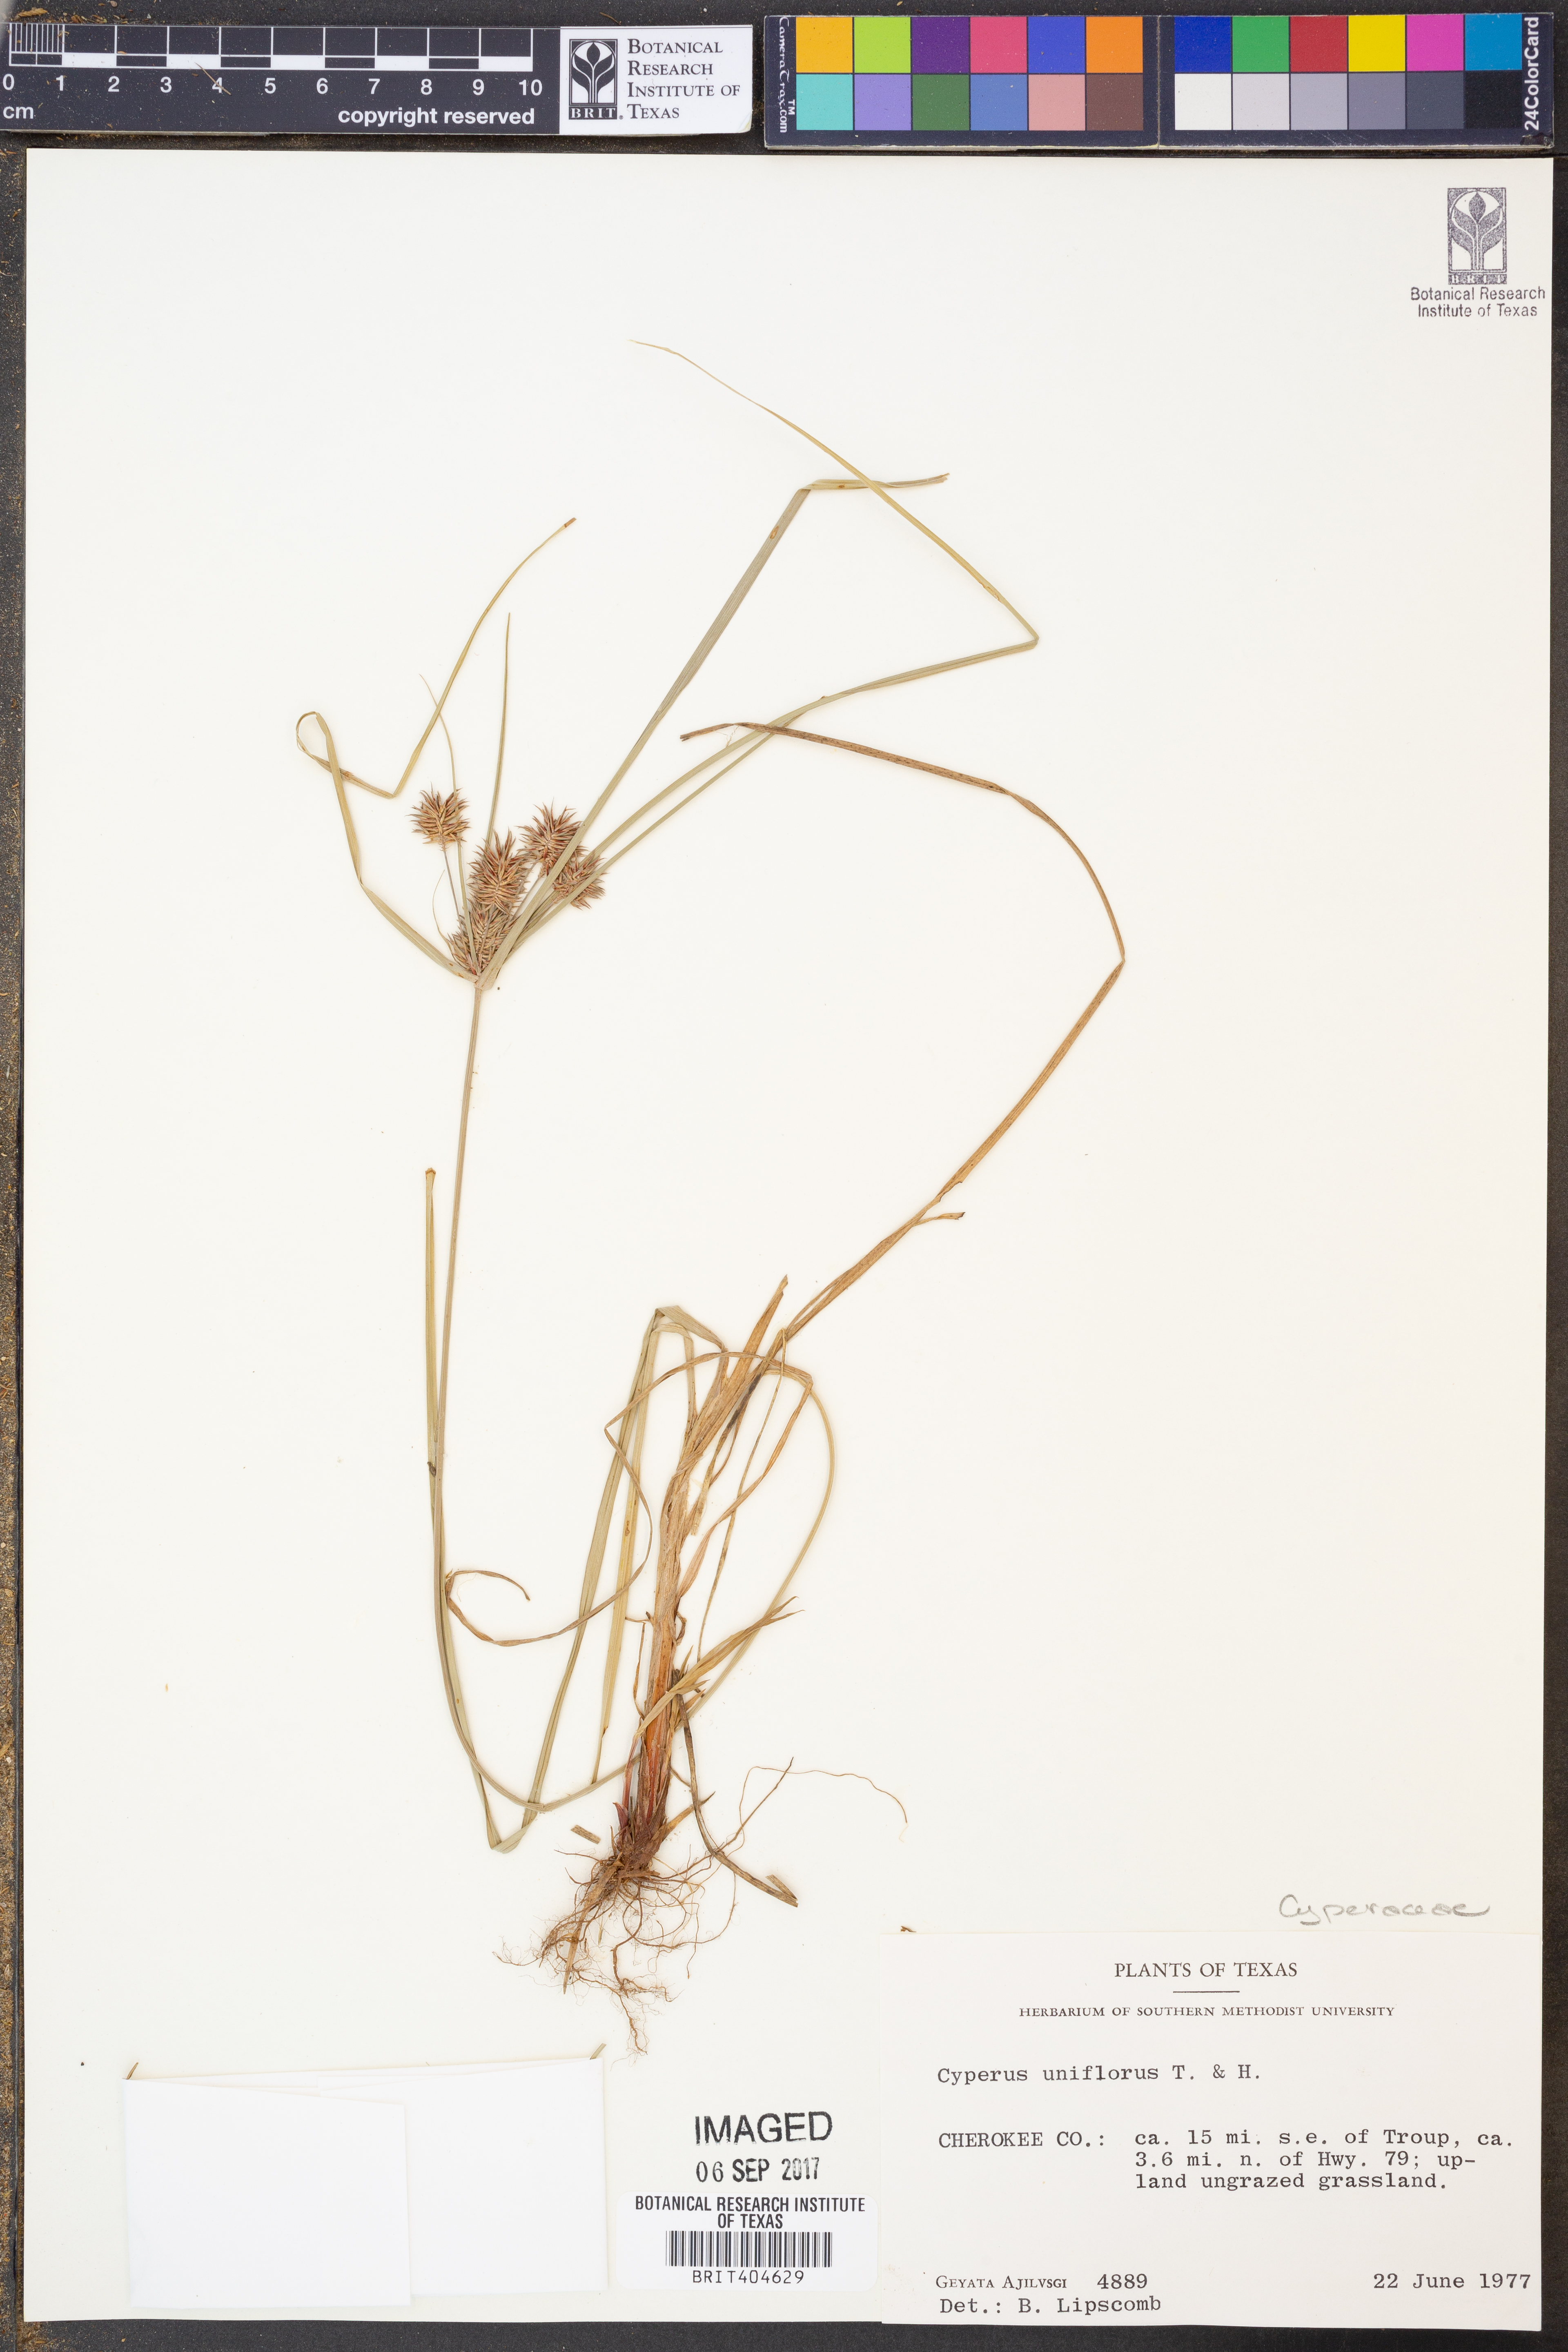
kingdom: Plantae
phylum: Tracheophyta
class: Liliopsida
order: Poales
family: Cyperaceae
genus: Cyperus
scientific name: Cyperus retroflexus
